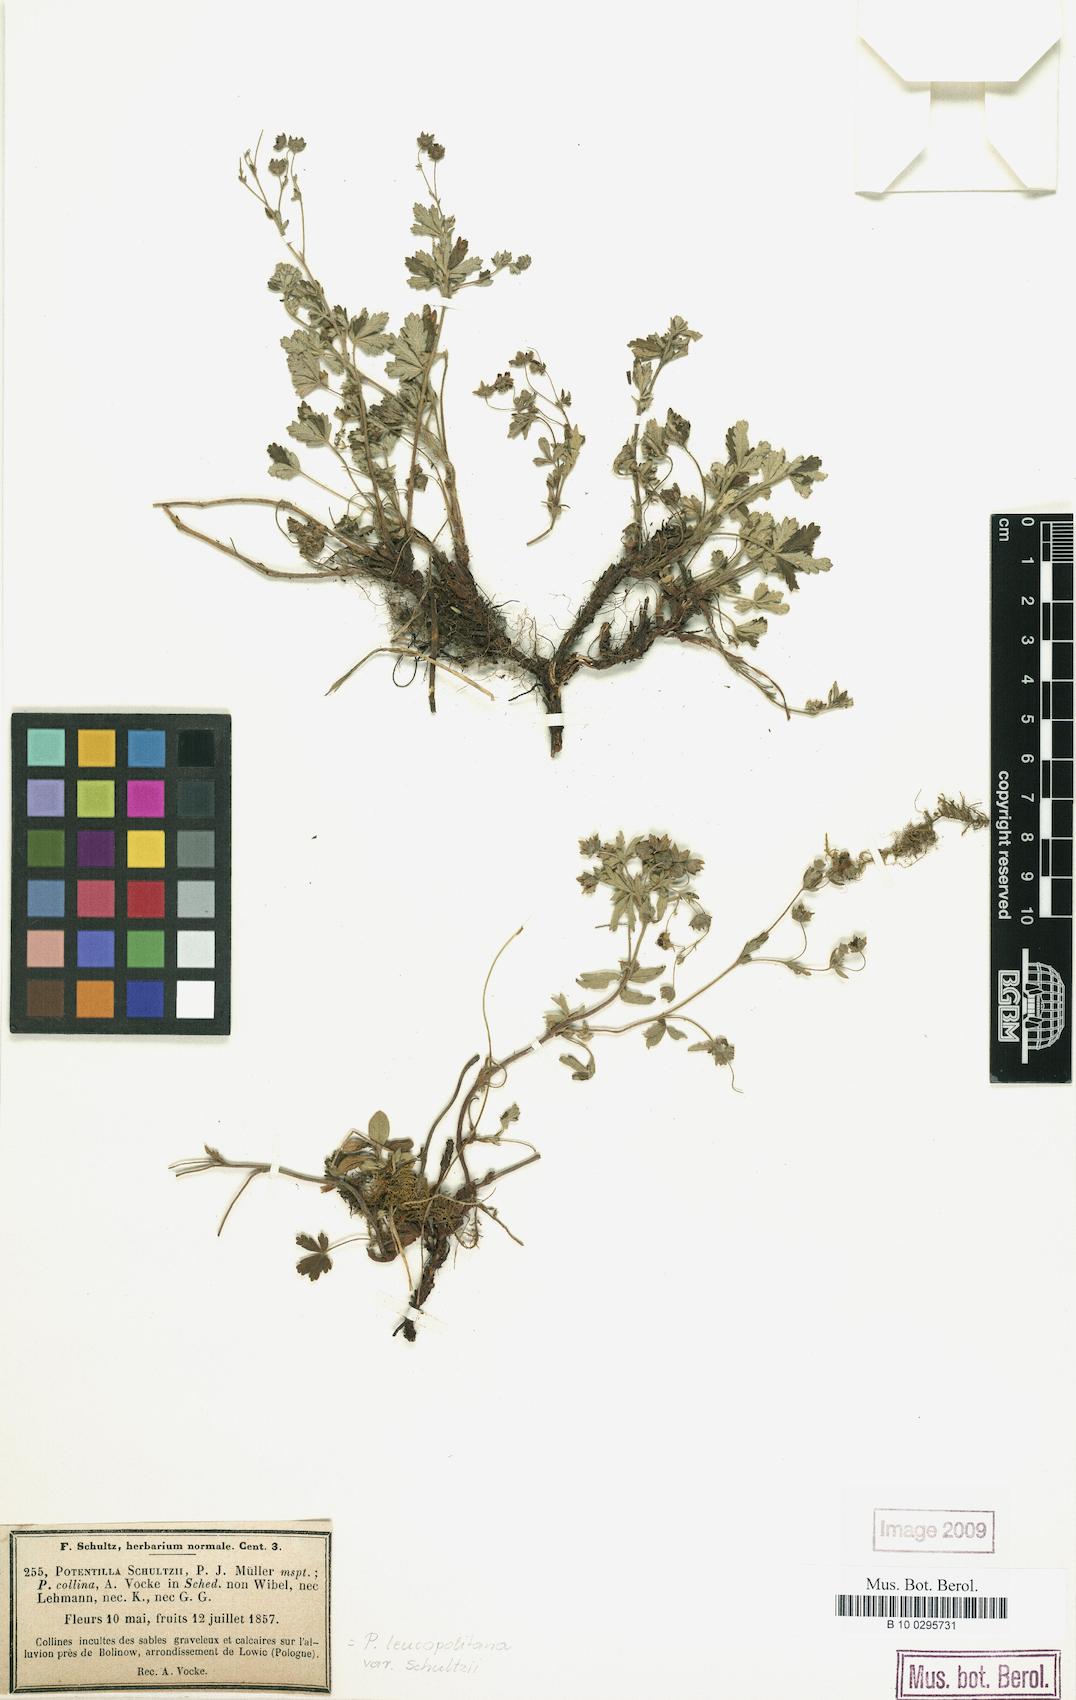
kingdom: Plantae
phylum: Tracheophyta
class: Magnoliopsida
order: Rosales
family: Rosaceae
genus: Potentilla
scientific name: Potentilla
